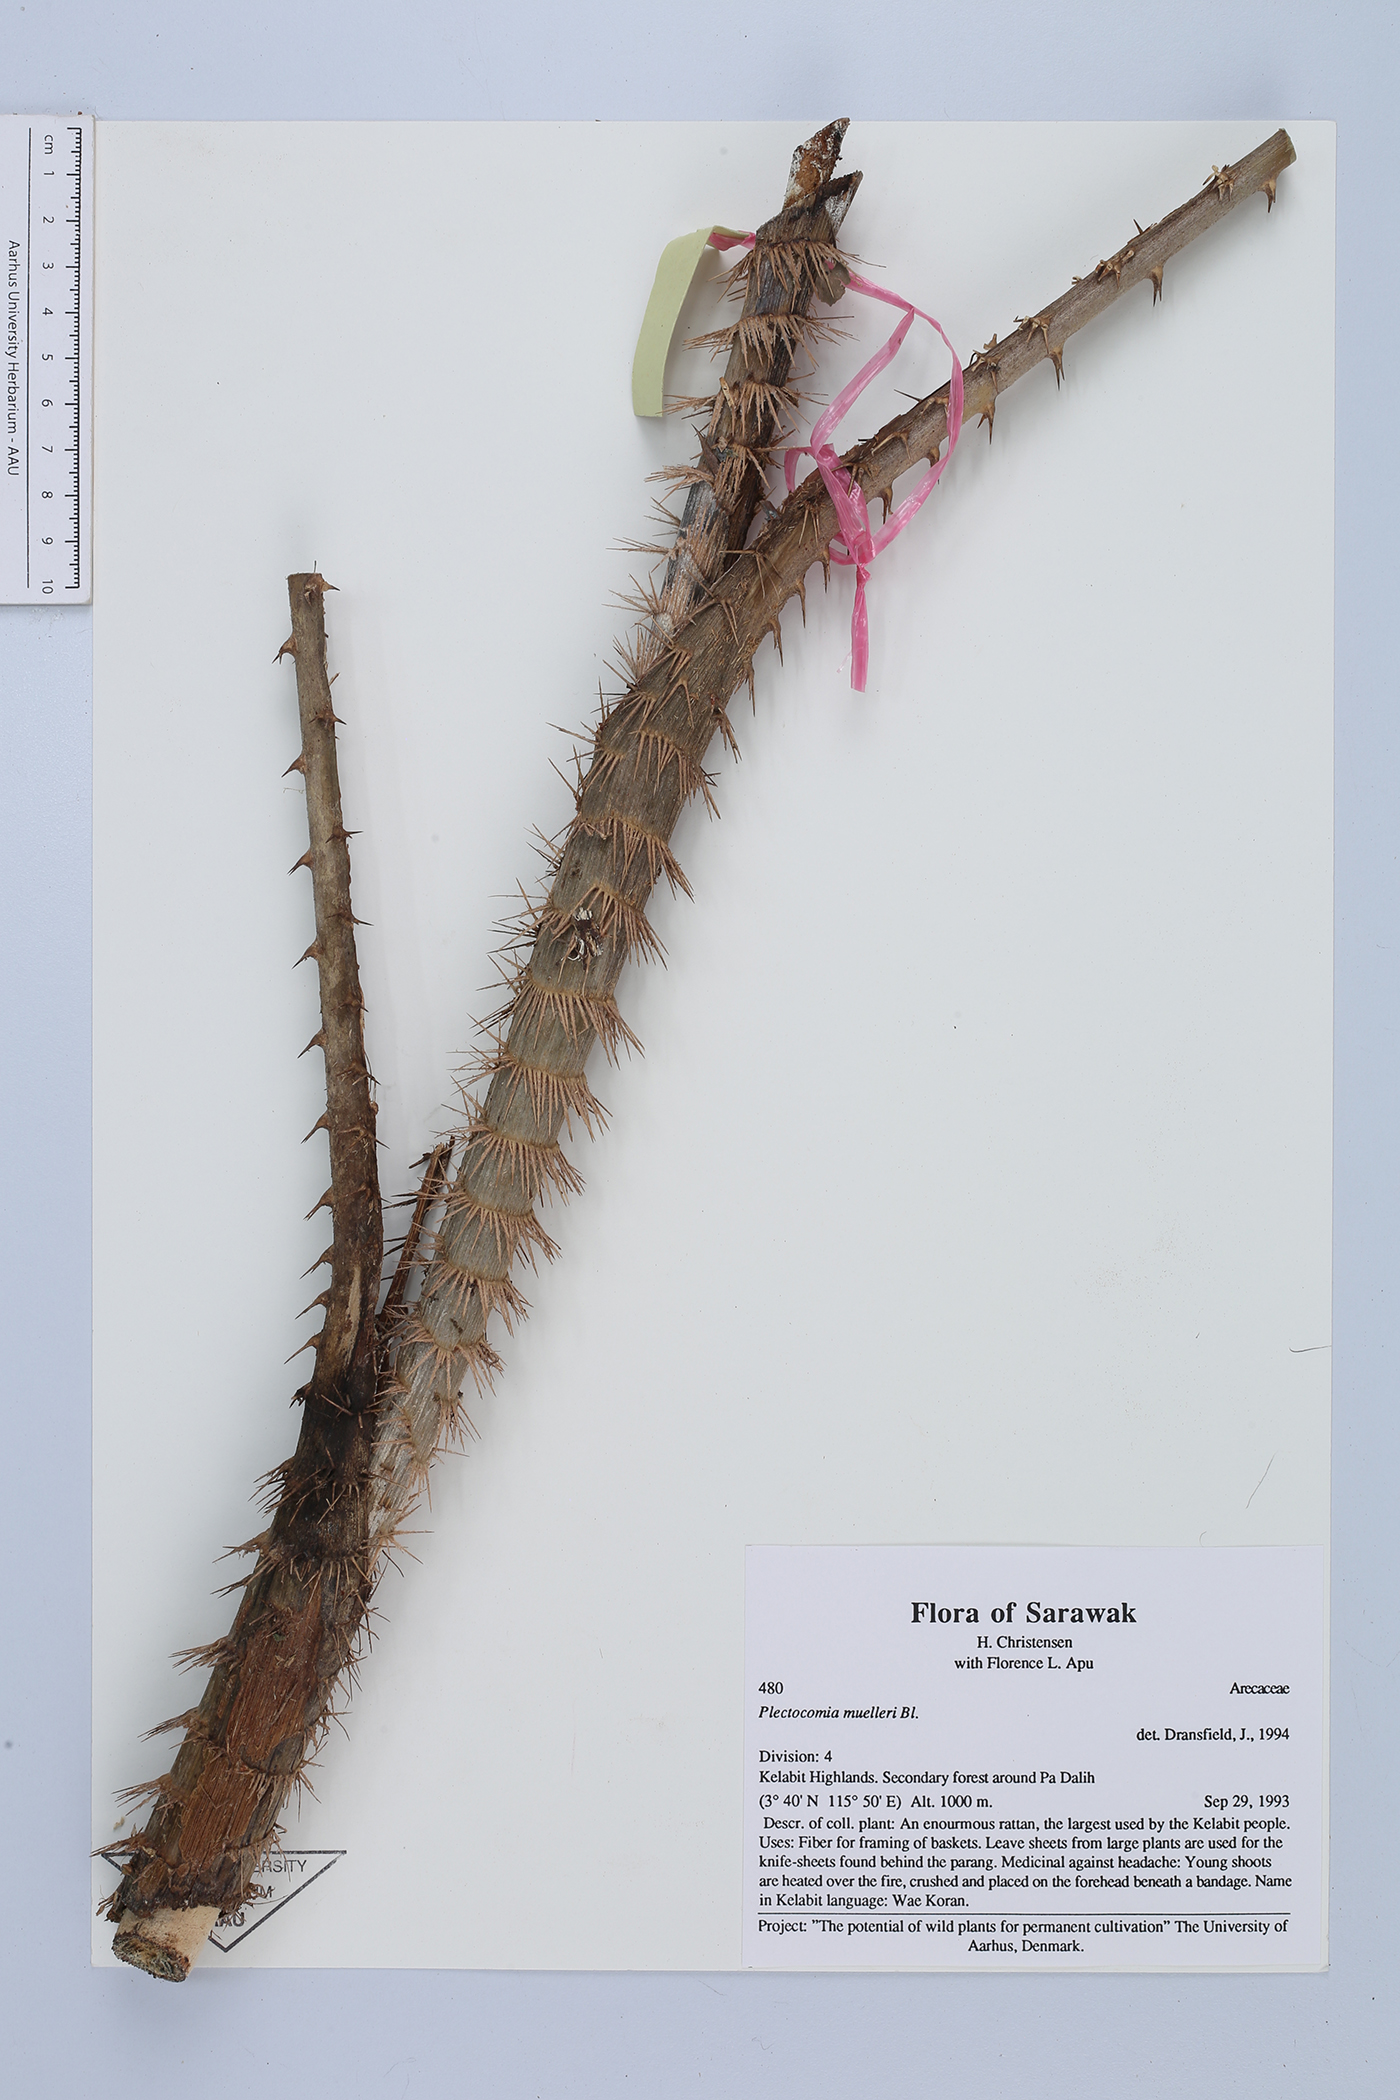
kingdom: Plantae
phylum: Tracheophyta
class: Liliopsida
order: Arecales
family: Arecaceae
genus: Plectocomia
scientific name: Plectocomia mulleri
